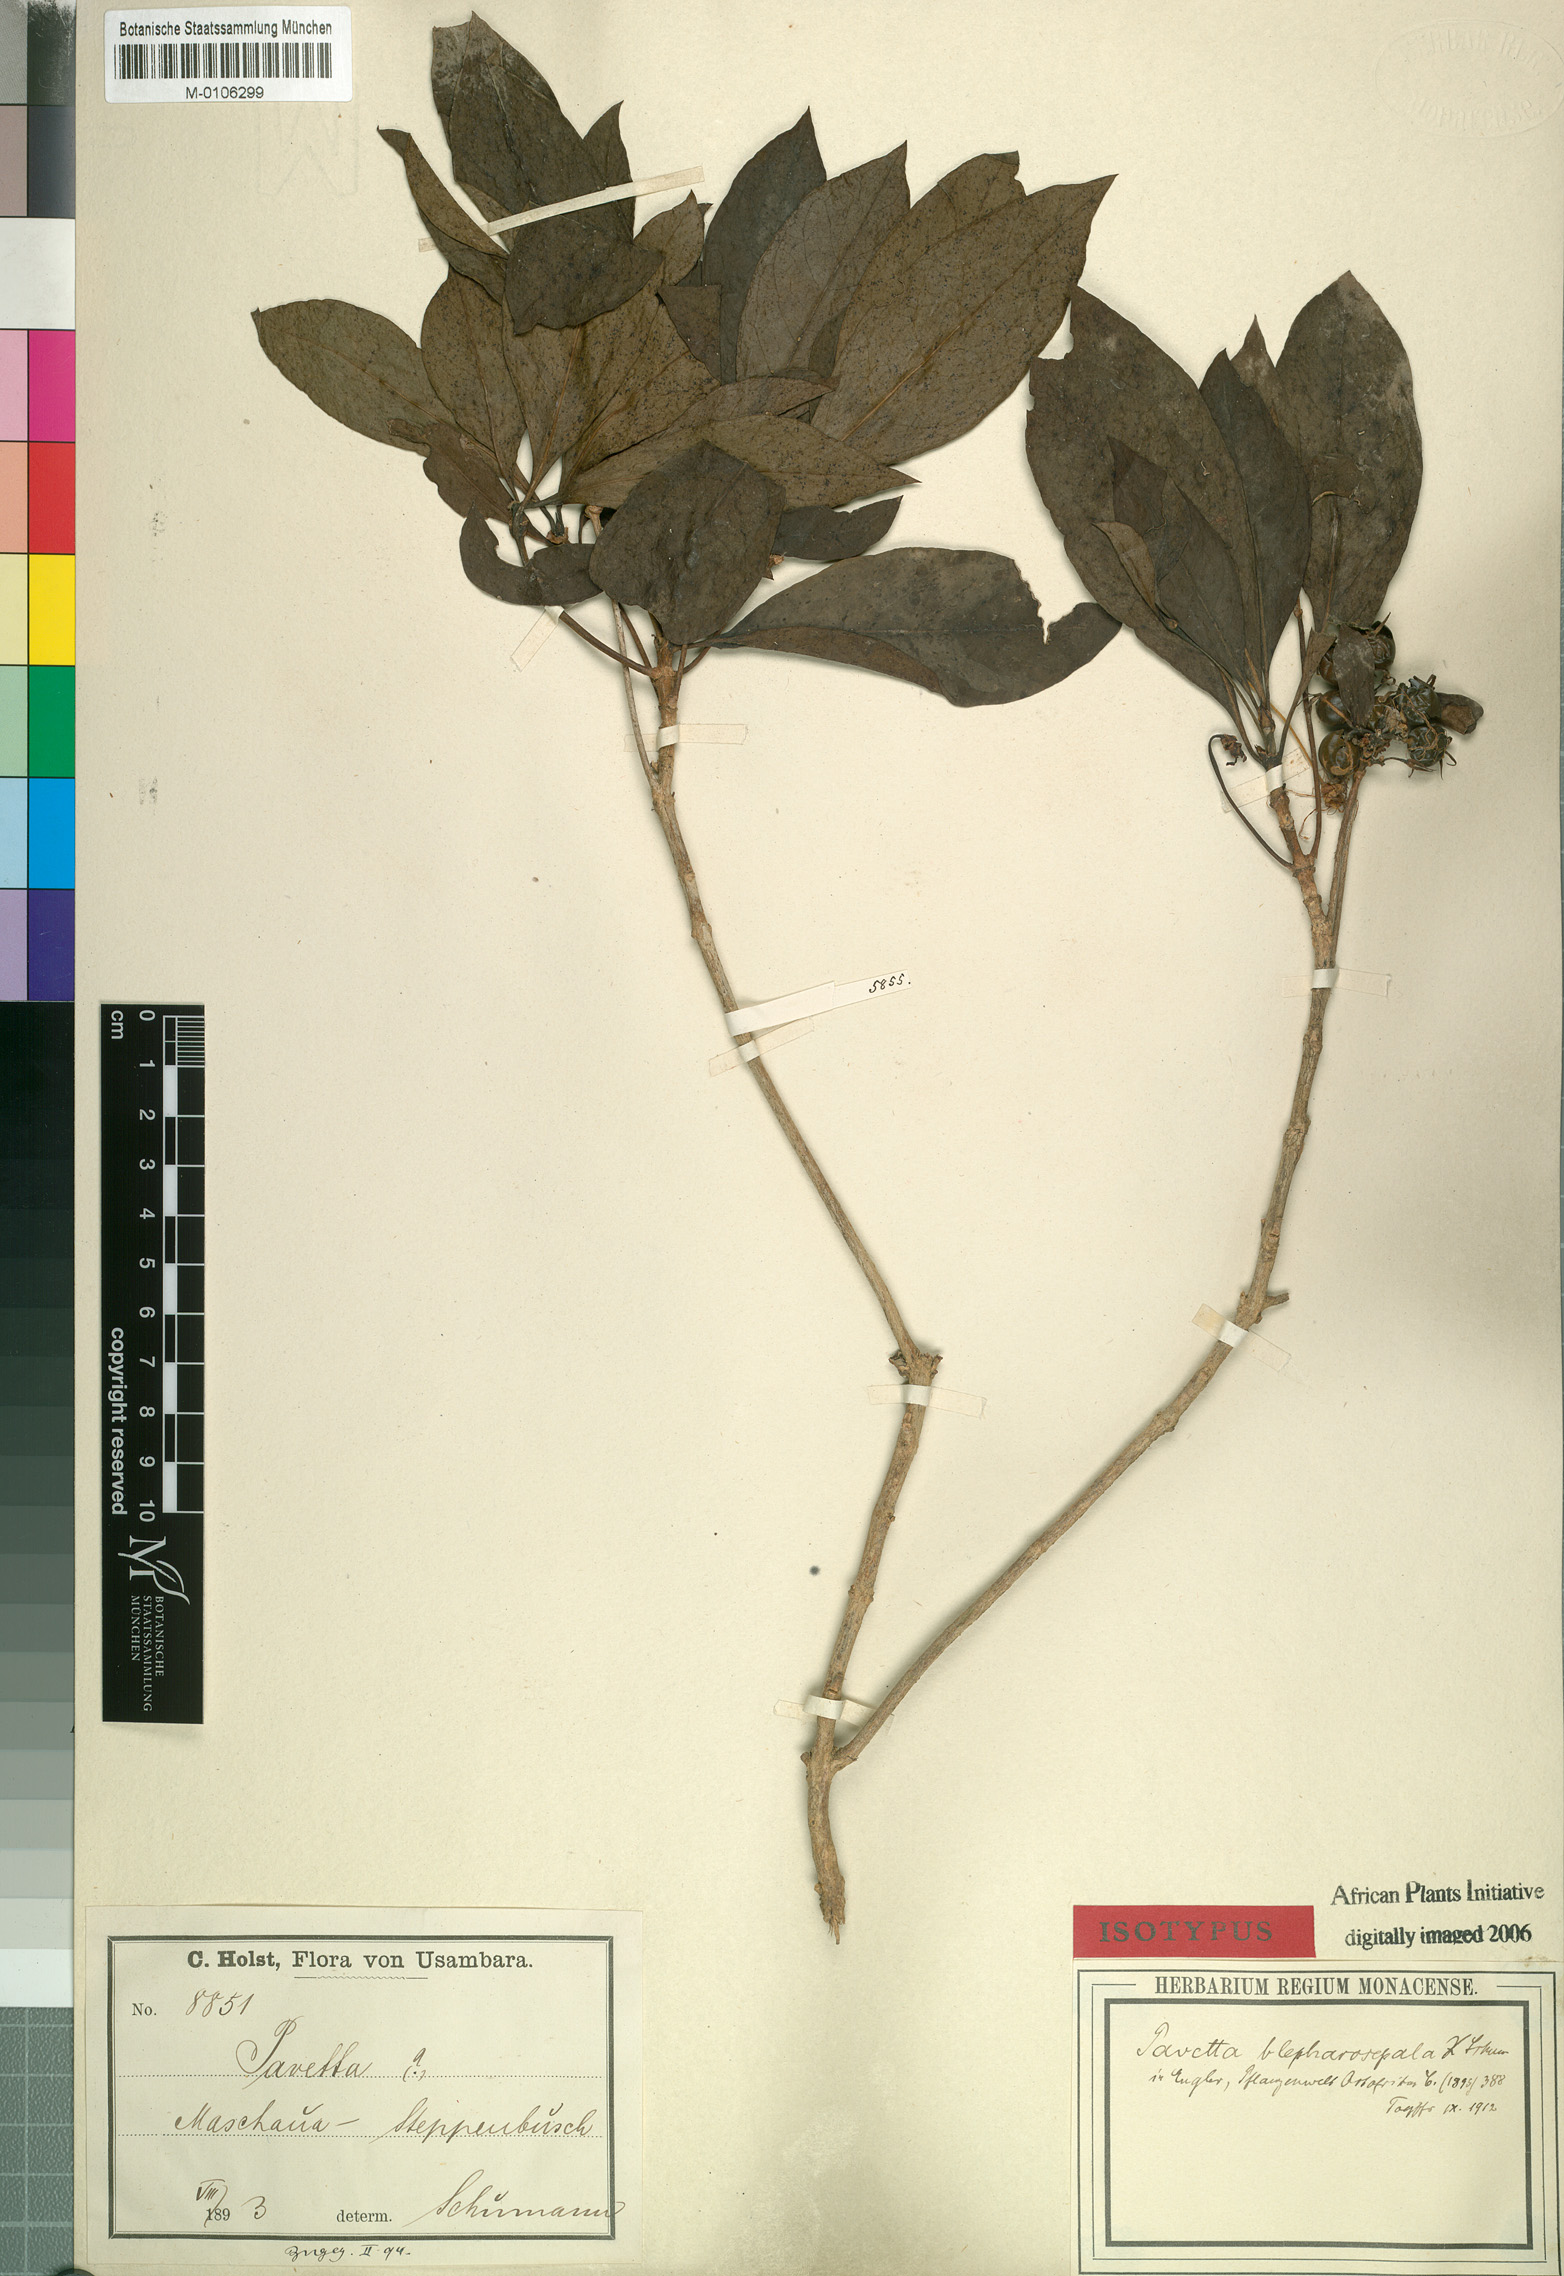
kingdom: Plantae
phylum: Tracheophyta
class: Magnoliopsida
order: Gentianales
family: Rubiaceae
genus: Pavetta
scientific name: Pavetta crebrifolia
